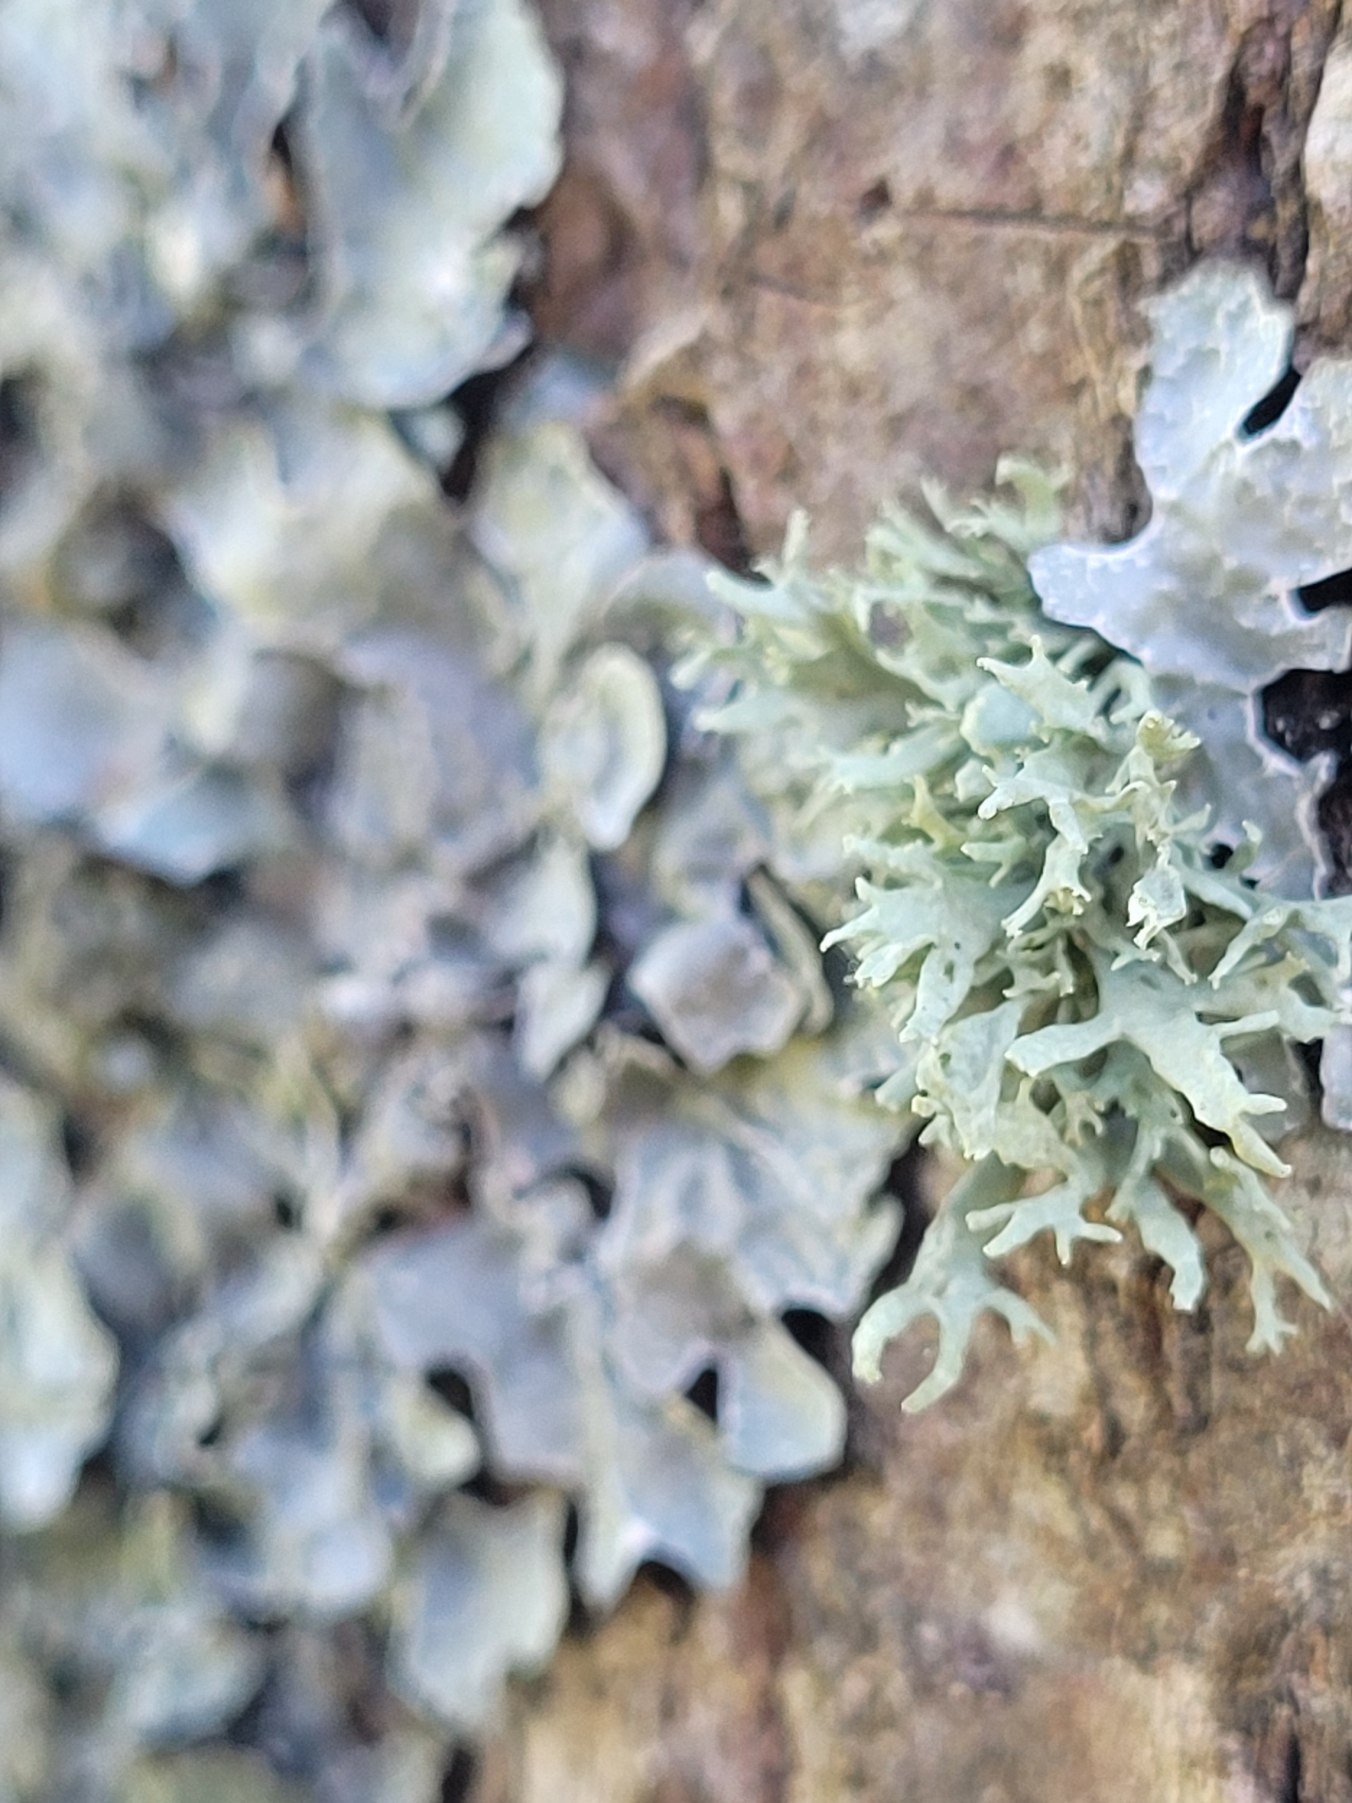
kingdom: Fungi
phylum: Ascomycota
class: Lecanoromycetes
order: Lecanorales
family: Ramalinaceae
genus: Ramalina
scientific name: Ramalina farinacea
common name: Melet grenlav
